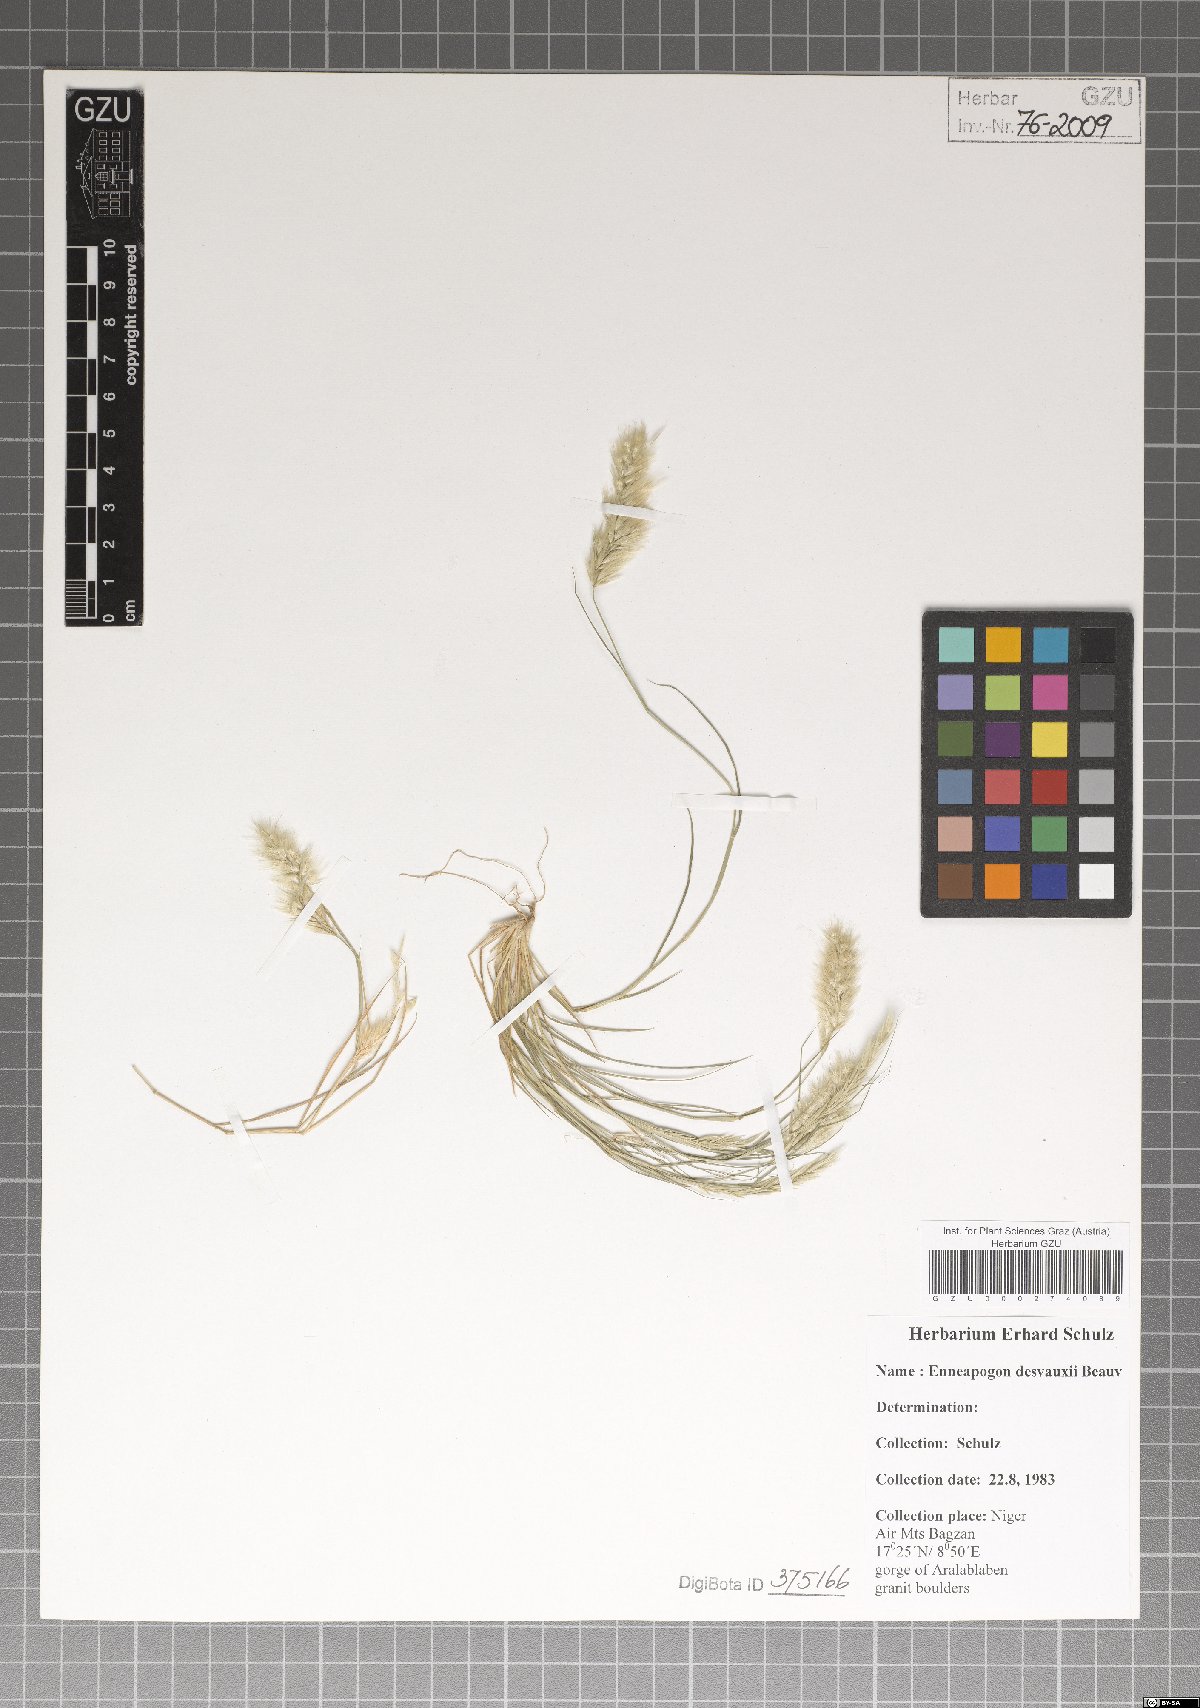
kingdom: Plantae
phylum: Tracheophyta
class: Liliopsida
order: Poales
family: Poaceae
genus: Enneapogon
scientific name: Enneapogon desvauxii
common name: Feather pappus grass
